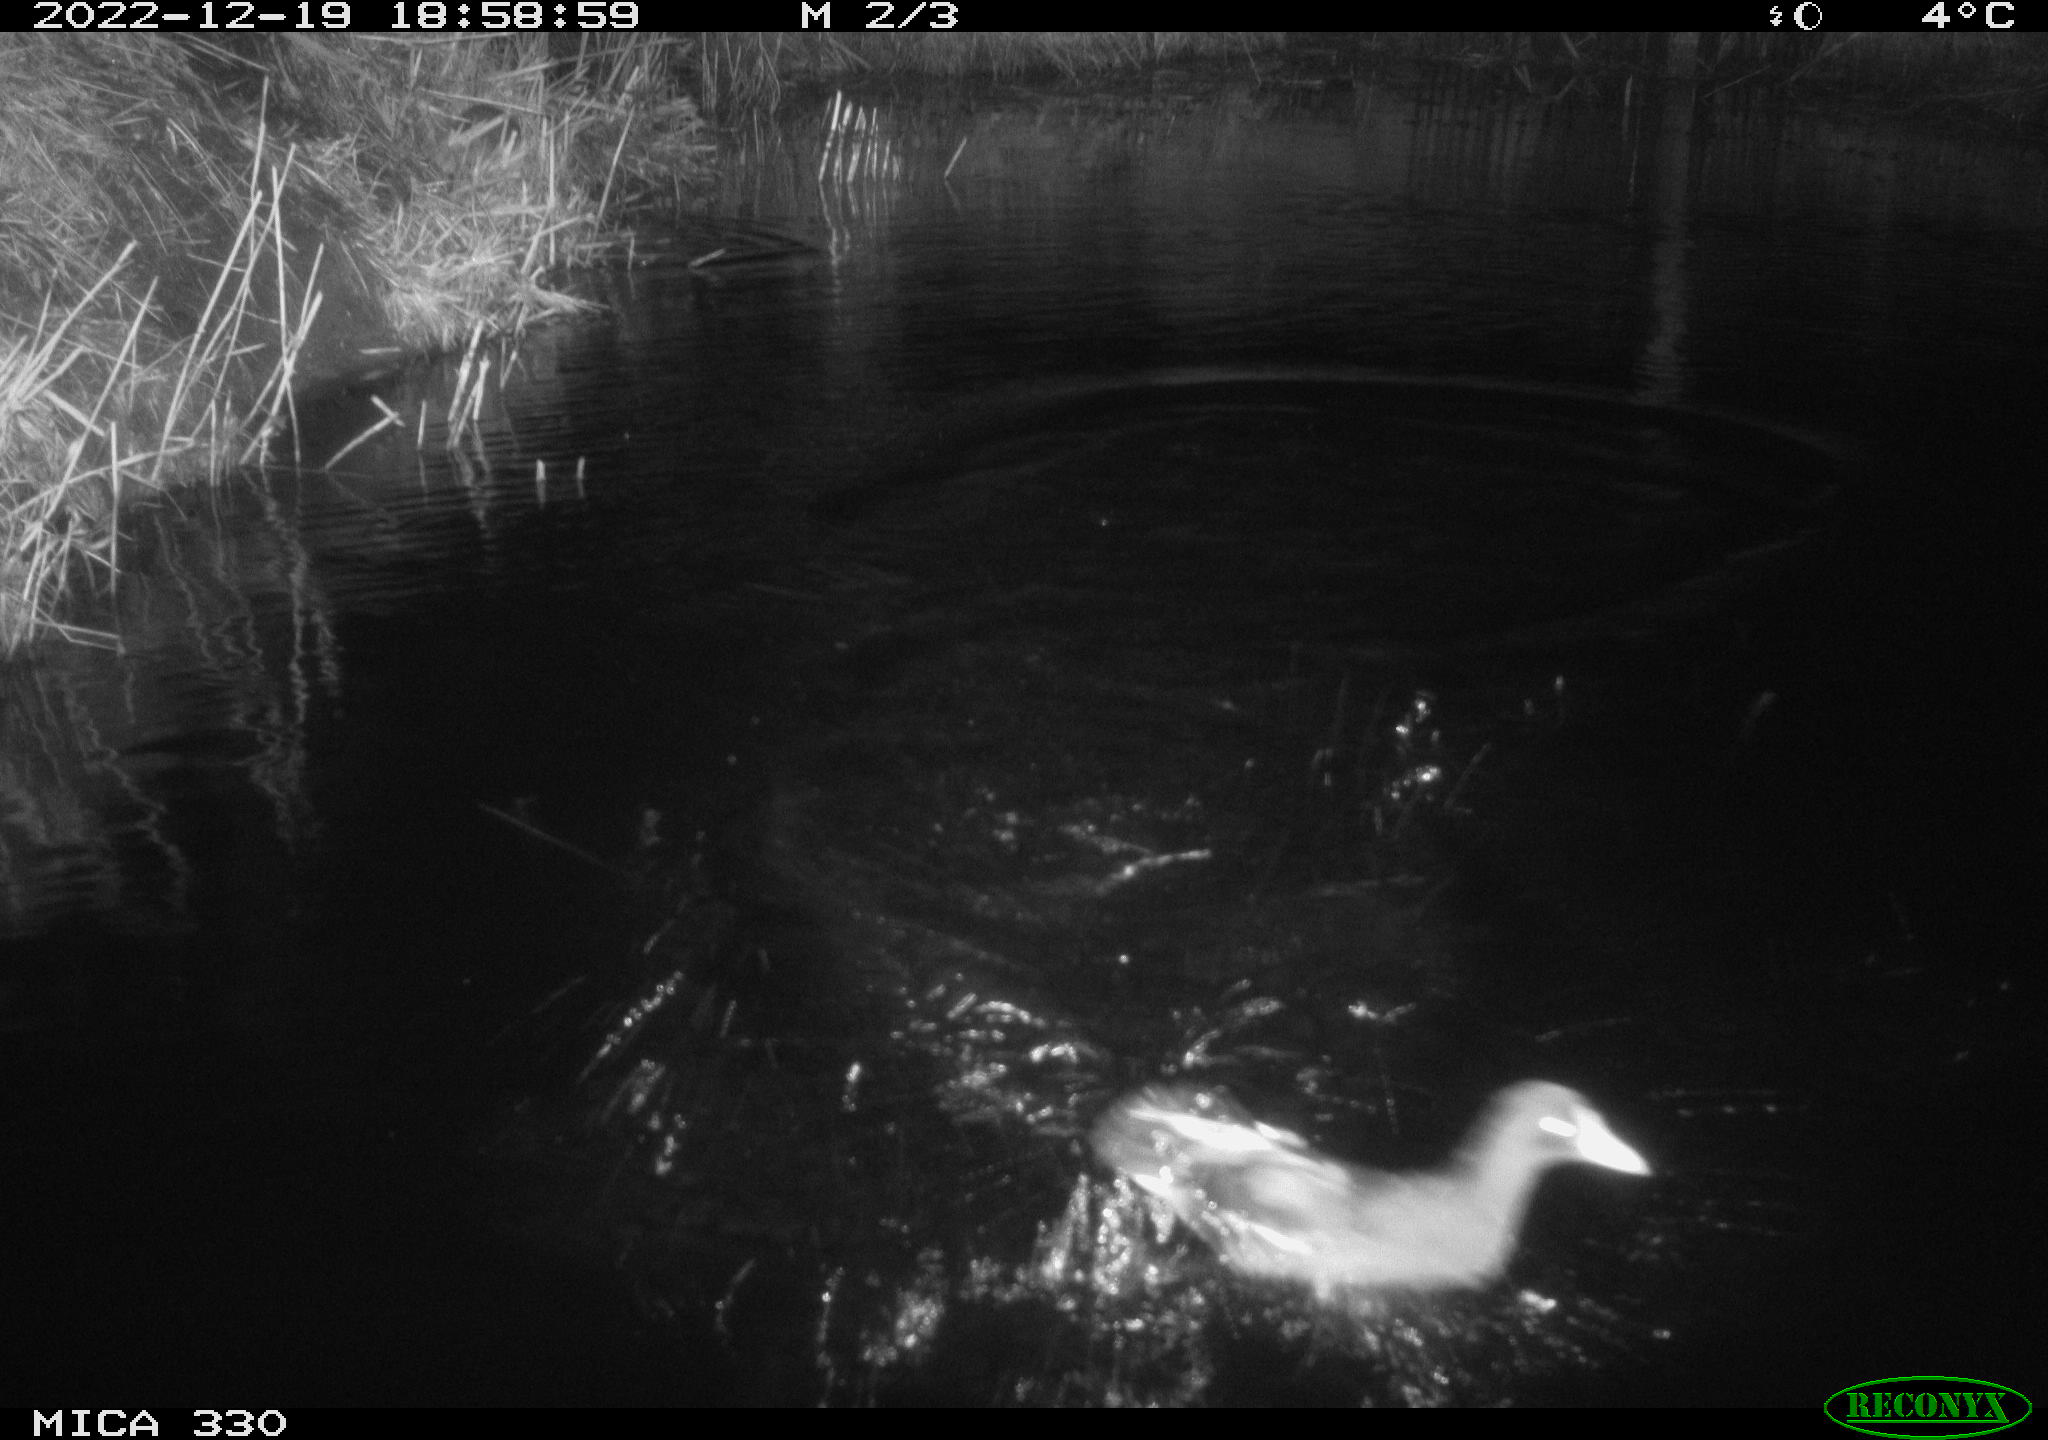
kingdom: Animalia
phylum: Chordata
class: Mammalia
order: Rodentia
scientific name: Rodentia
